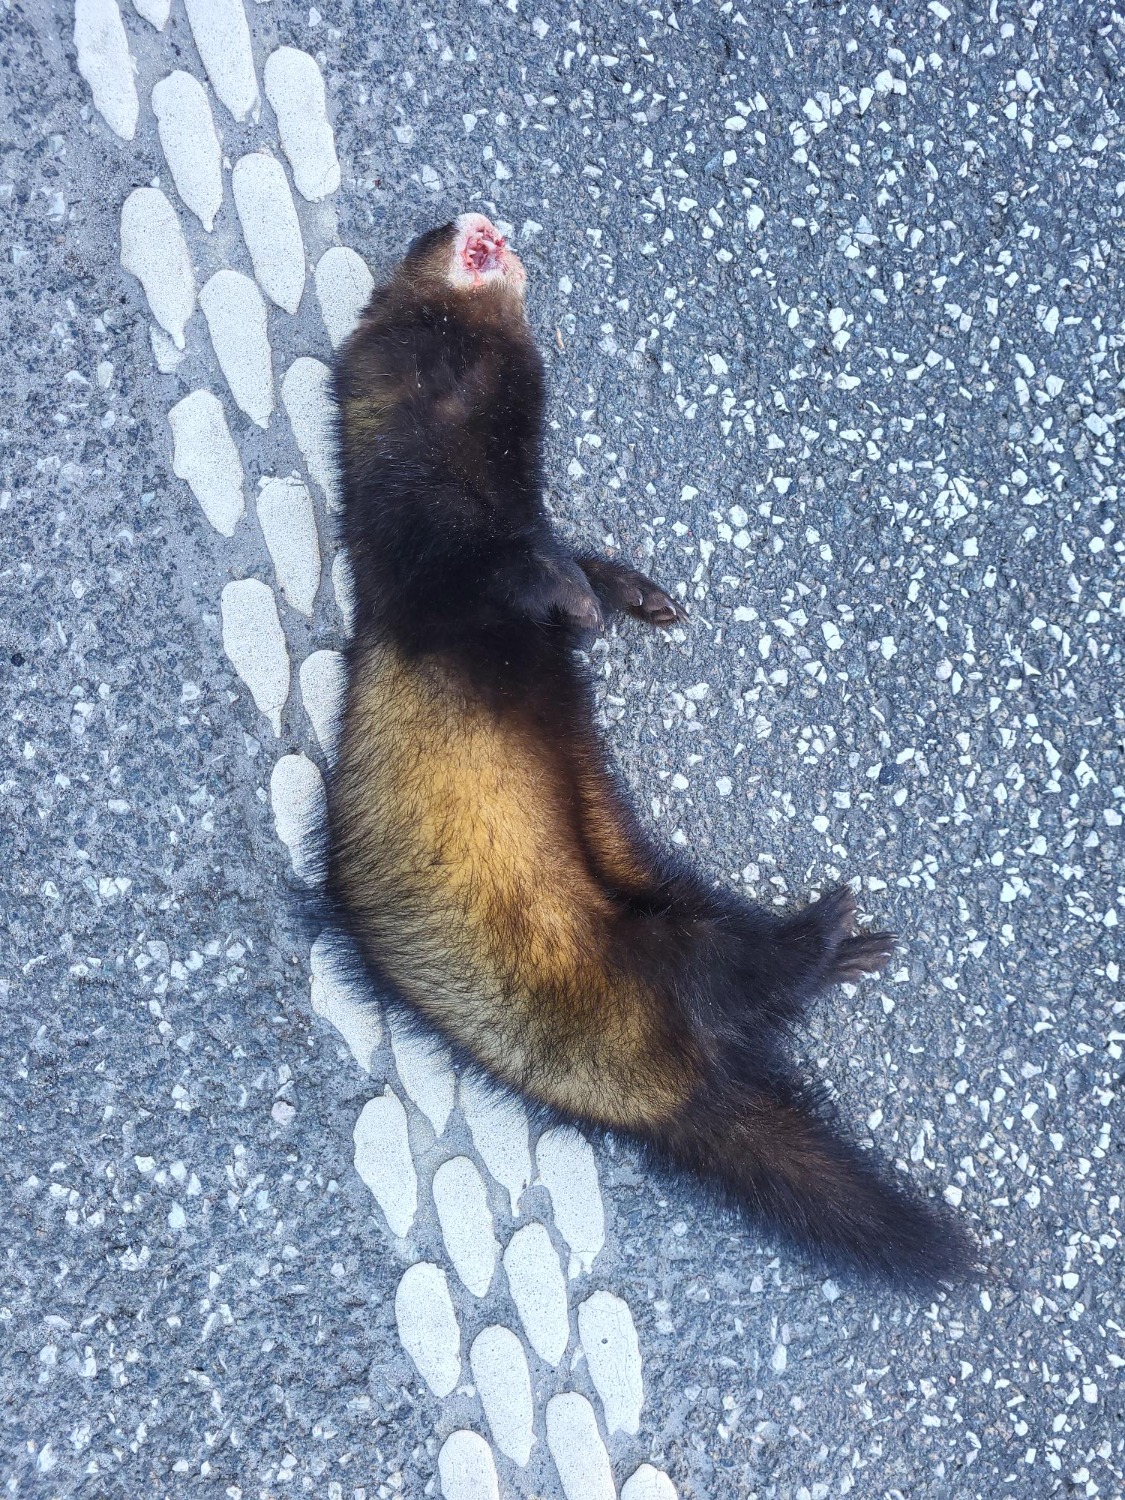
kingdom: Animalia
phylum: Chordata
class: Mammalia
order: Carnivora
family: Mustelidae
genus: Mustela
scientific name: Mustela putorius
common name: Ilder
